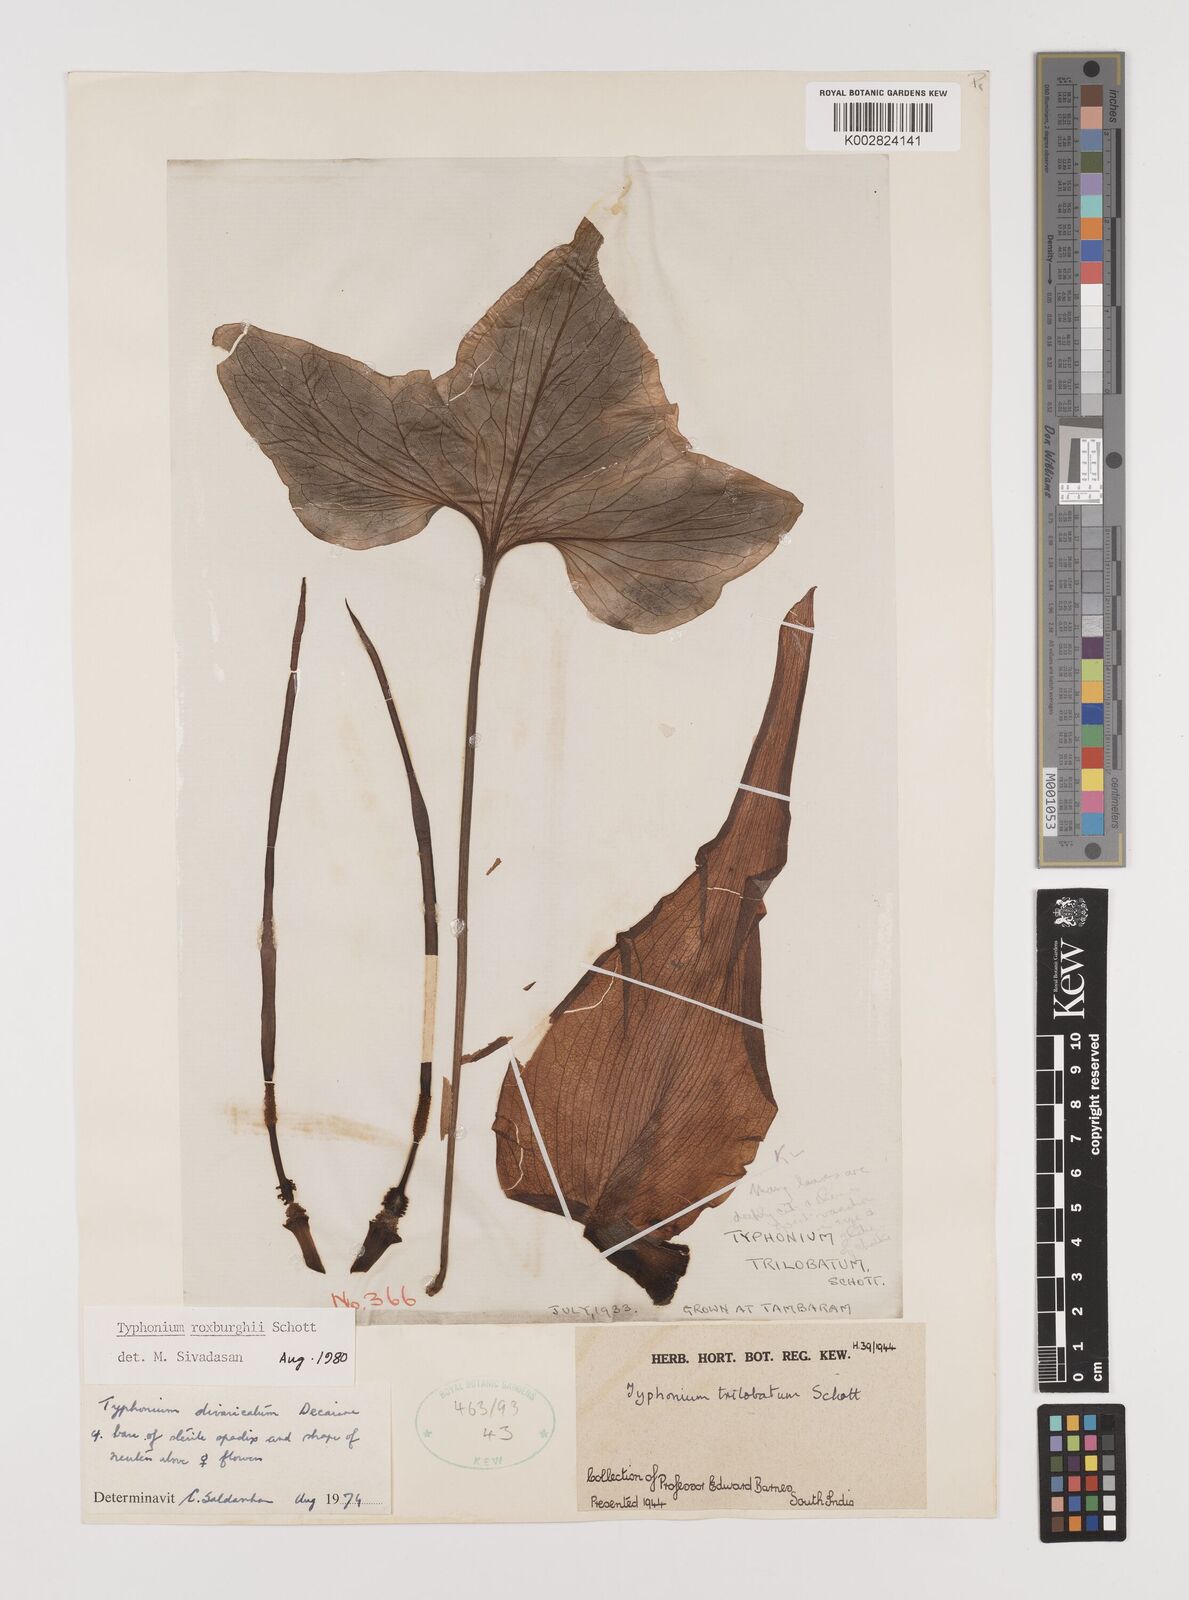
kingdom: Plantae
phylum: Tracheophyta
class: Liliopsida
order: Alismatales
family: Araceae
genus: Typhonium
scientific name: Typhonium roxburghii
